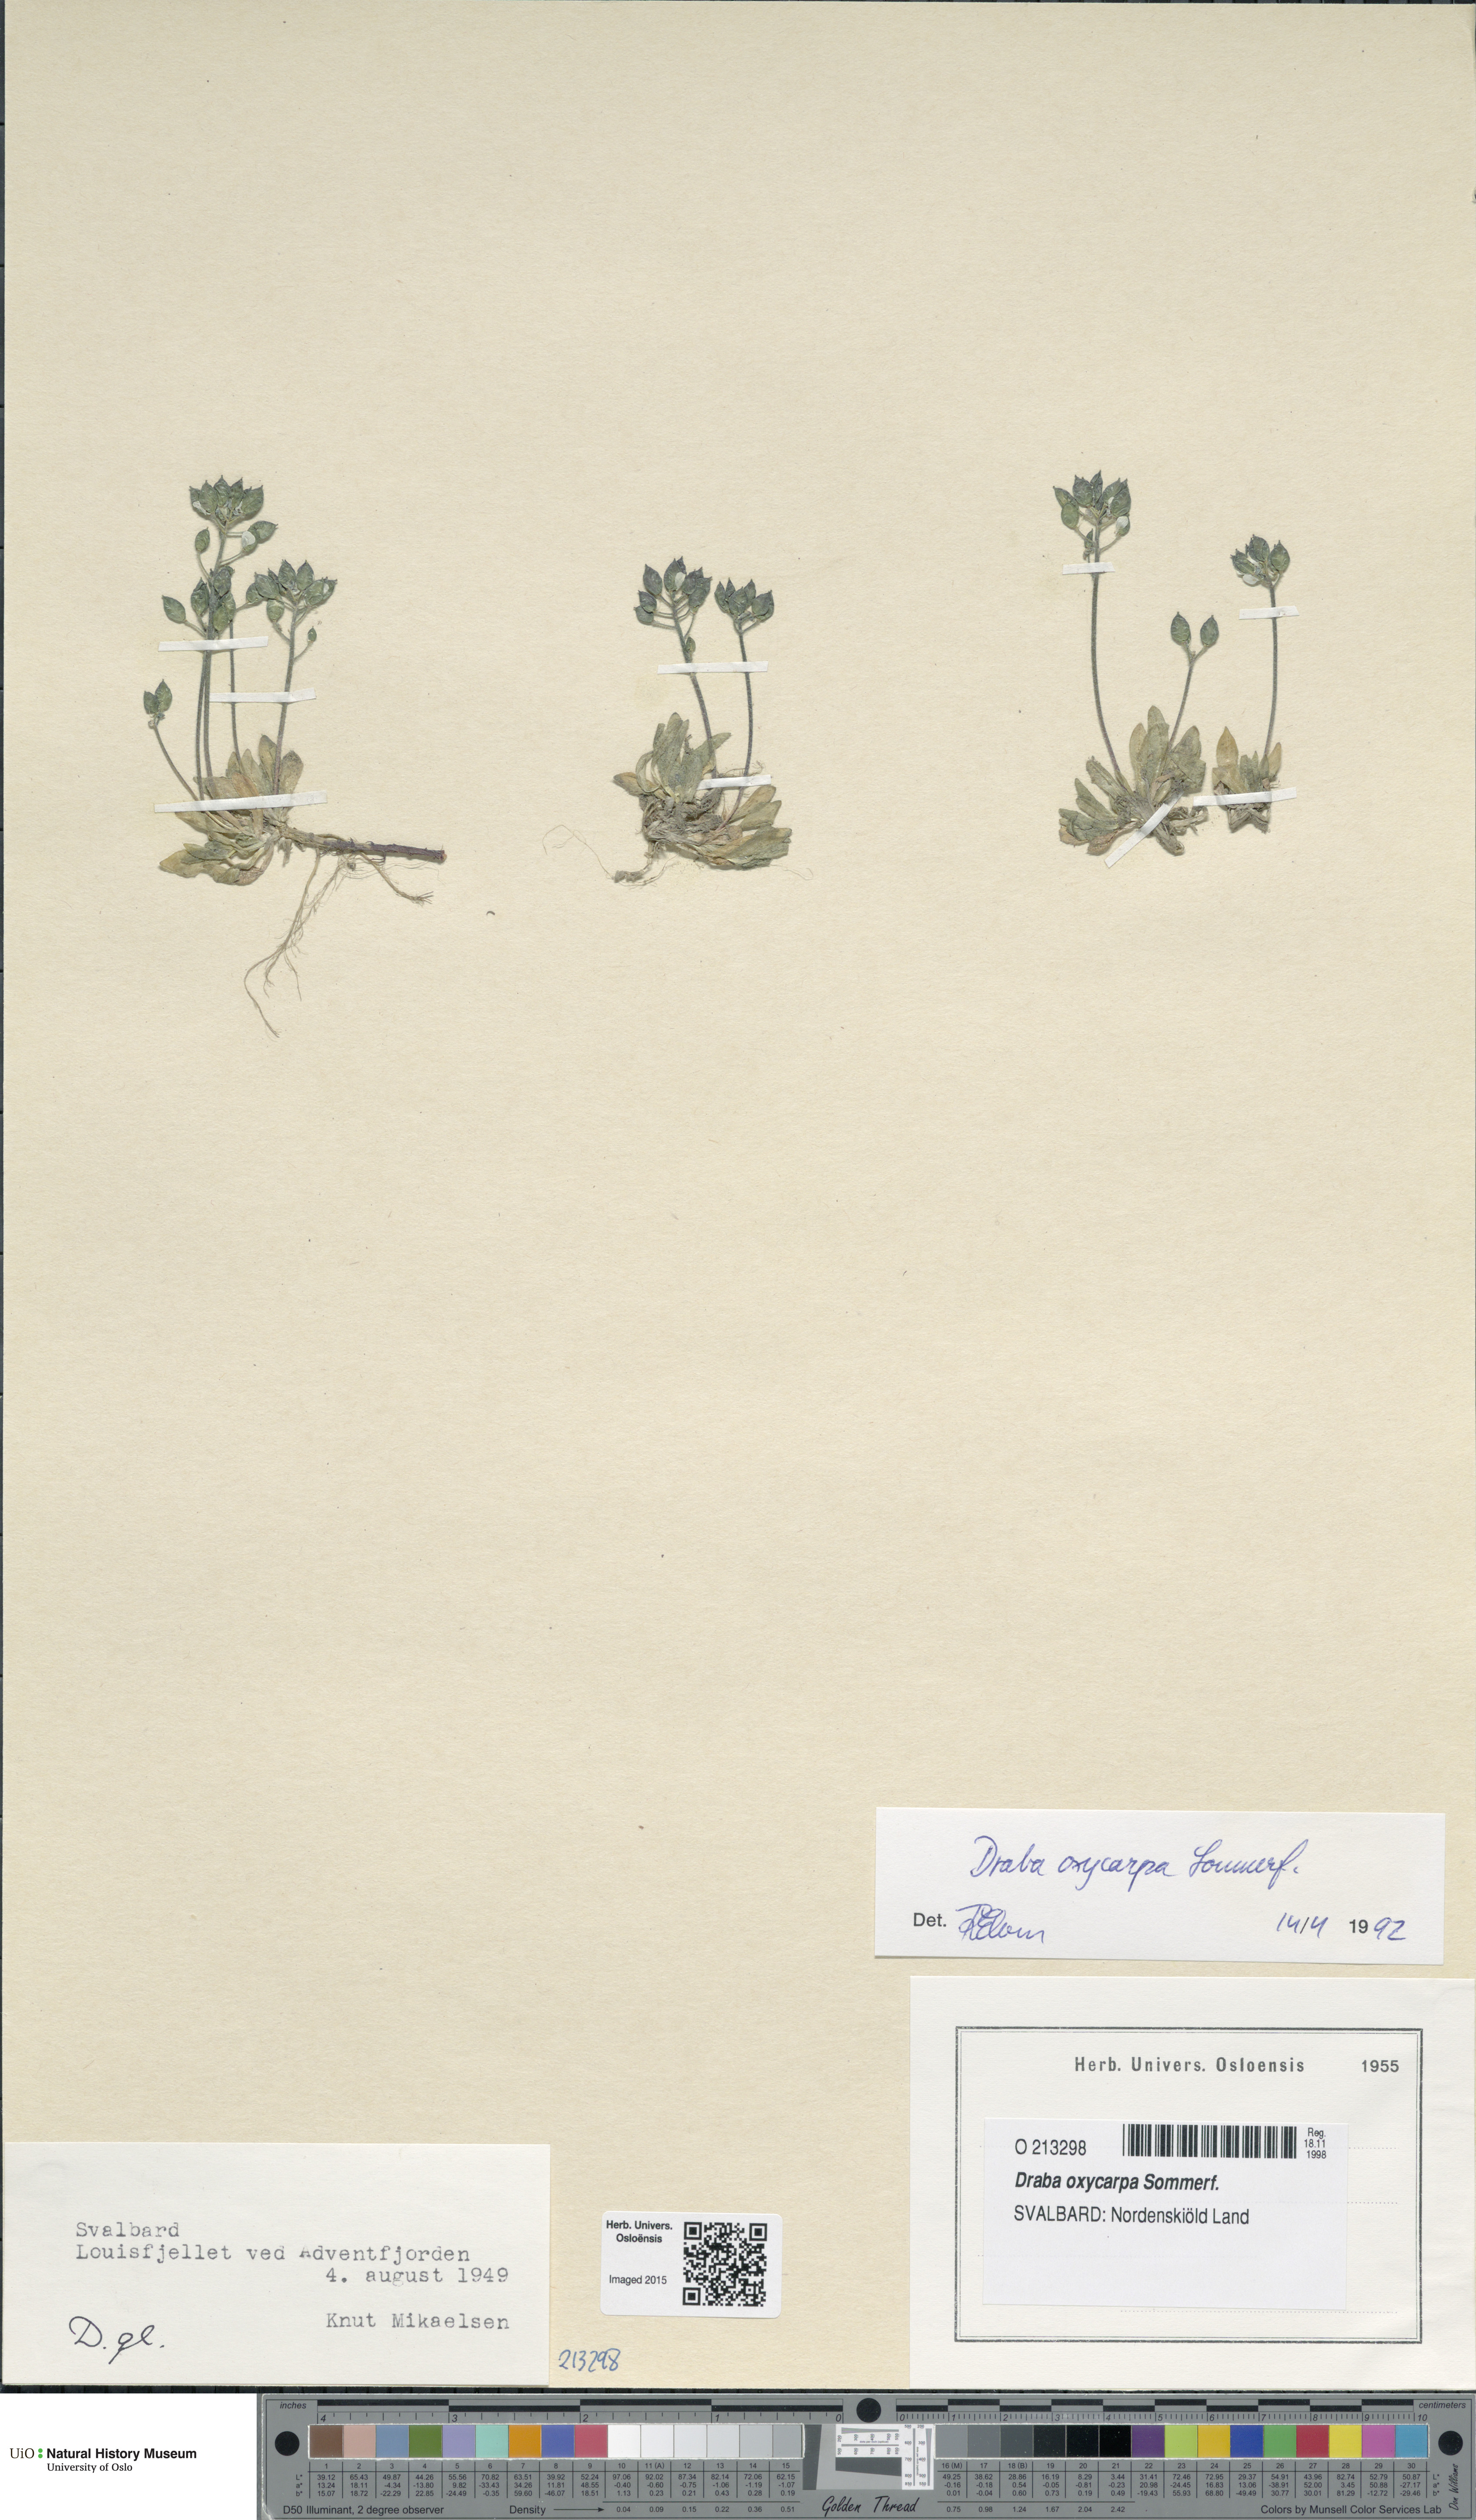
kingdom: Plantae
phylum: Tracheophyta
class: Magnoliopsida
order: Brassicales
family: Brassicaceae
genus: Draba
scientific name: Draba oxycarpa
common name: Sharp-fruited whitlow-grass
